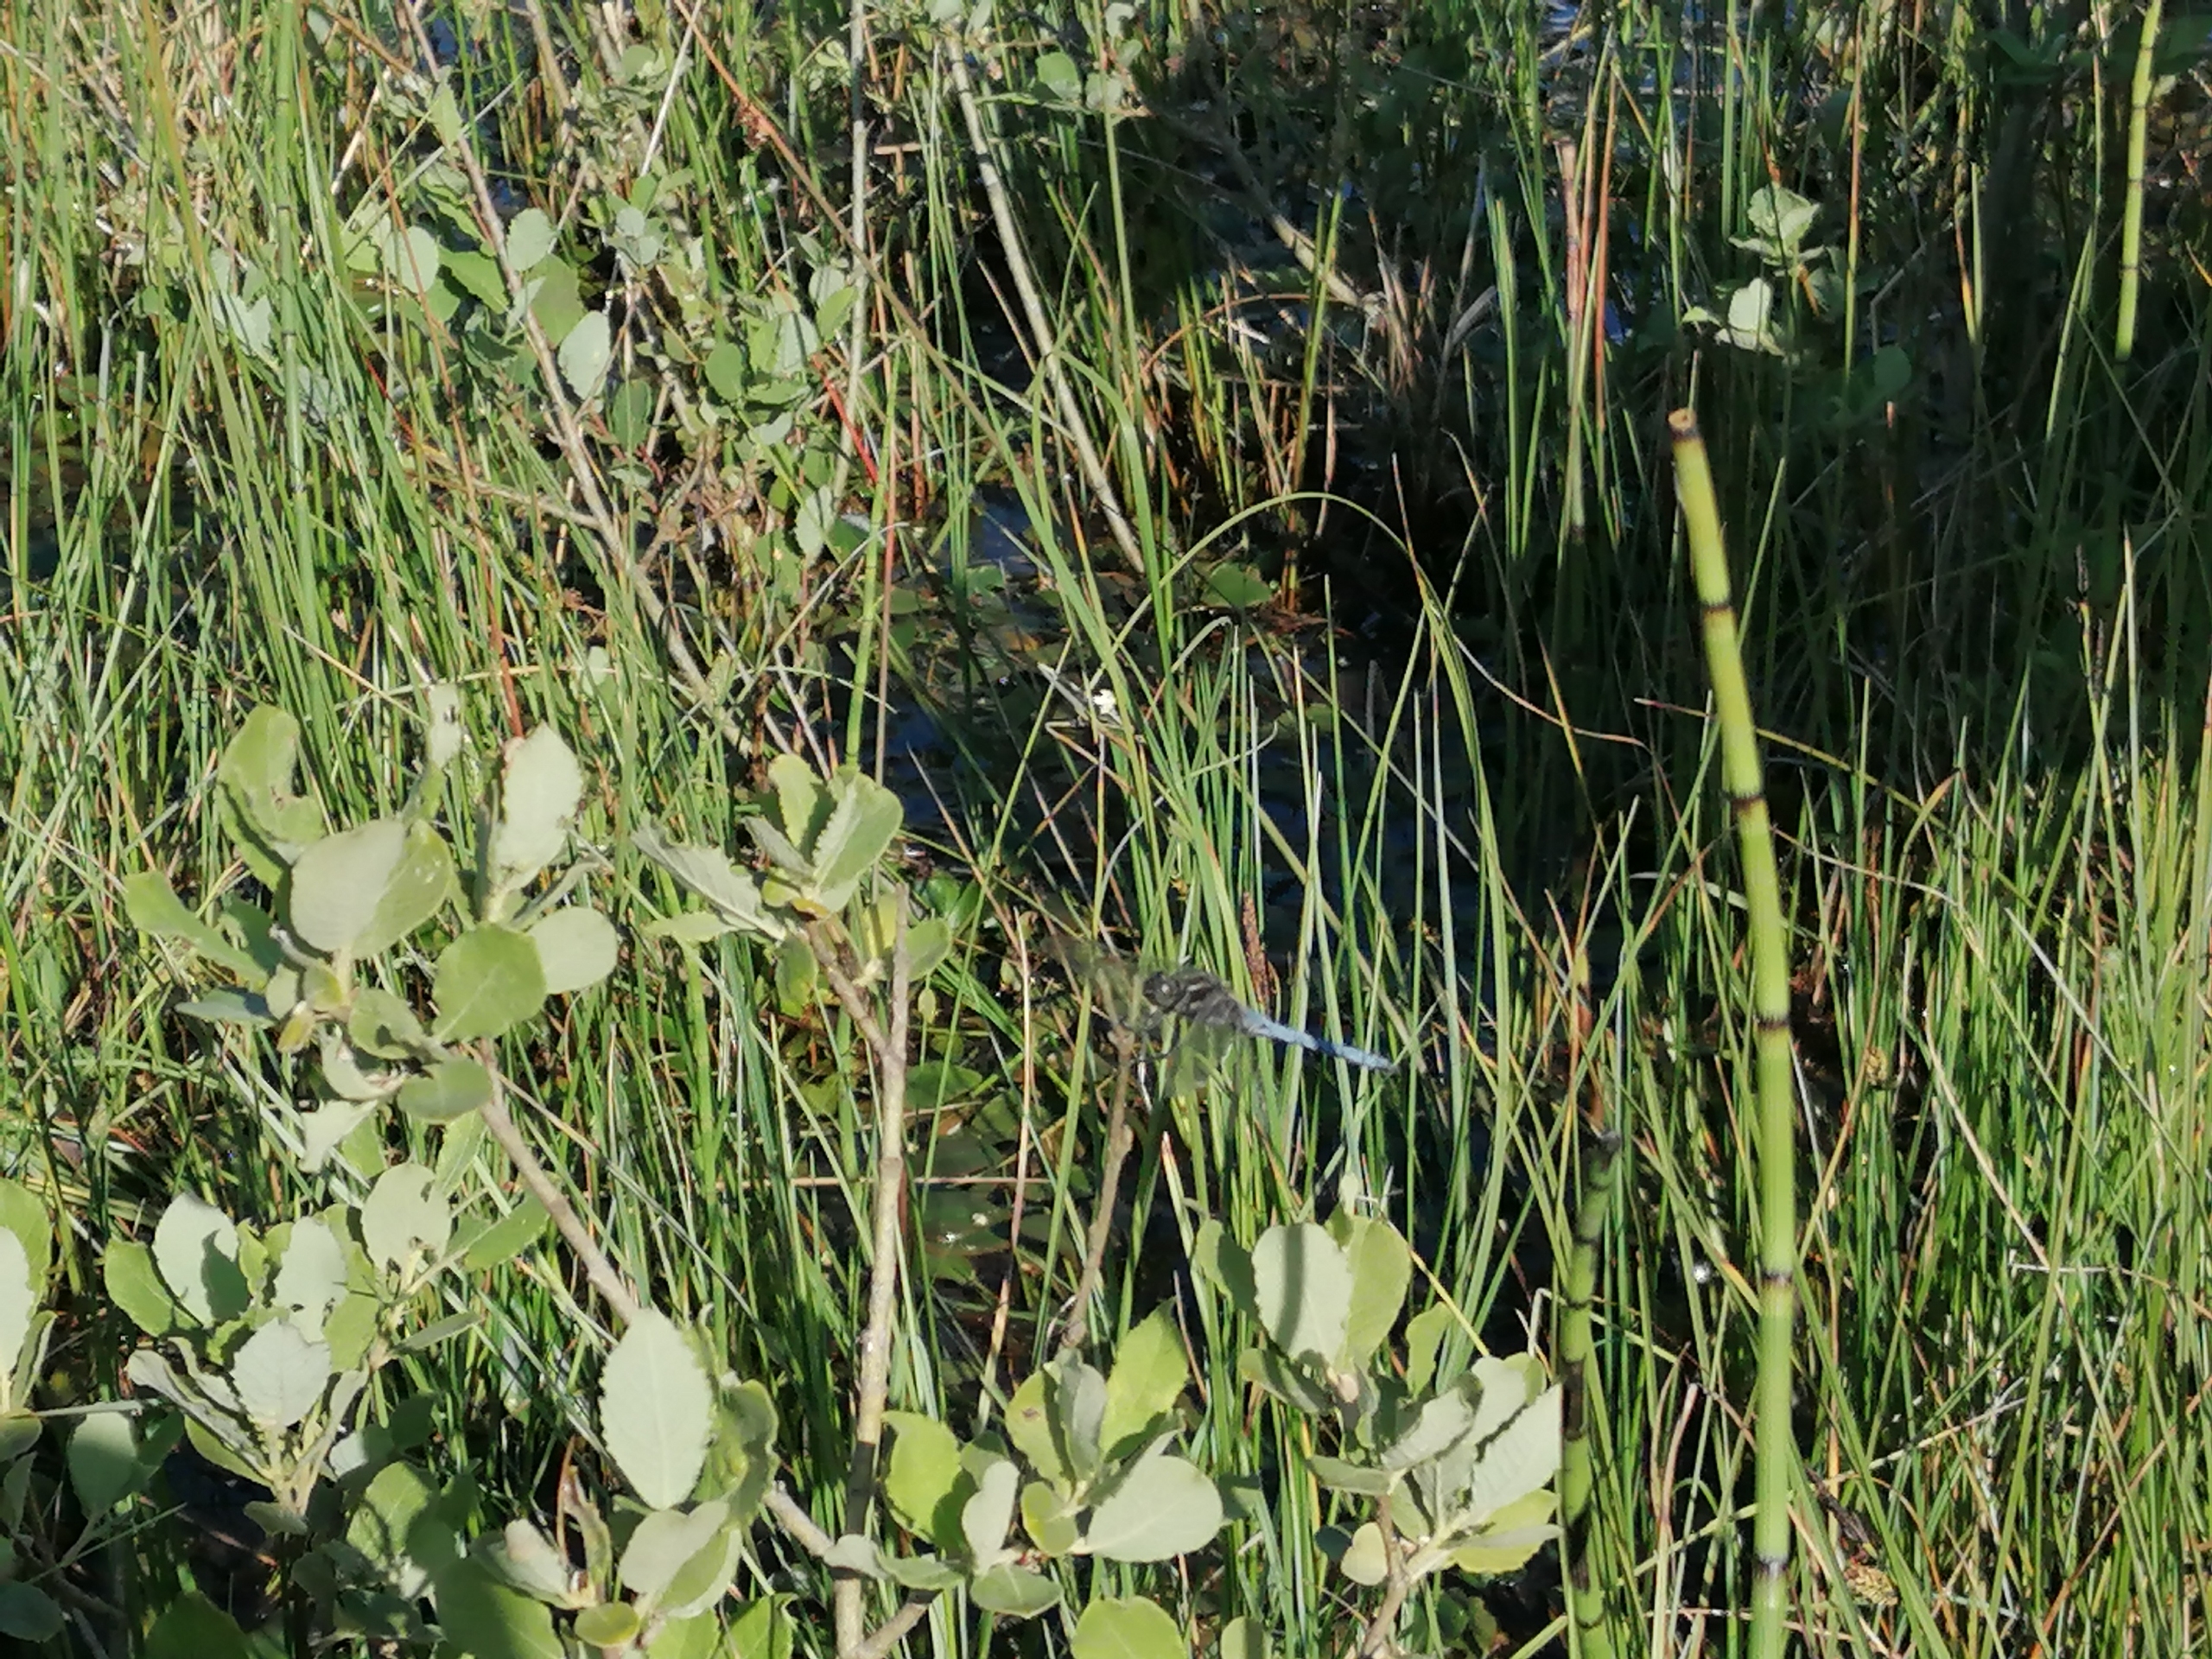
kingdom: Animalia
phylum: Arthropoda
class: Insecta
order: Odonata
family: Libellulidae
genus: Orthetrum
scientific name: Orthetrum coerulescens
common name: Lille blåpil
